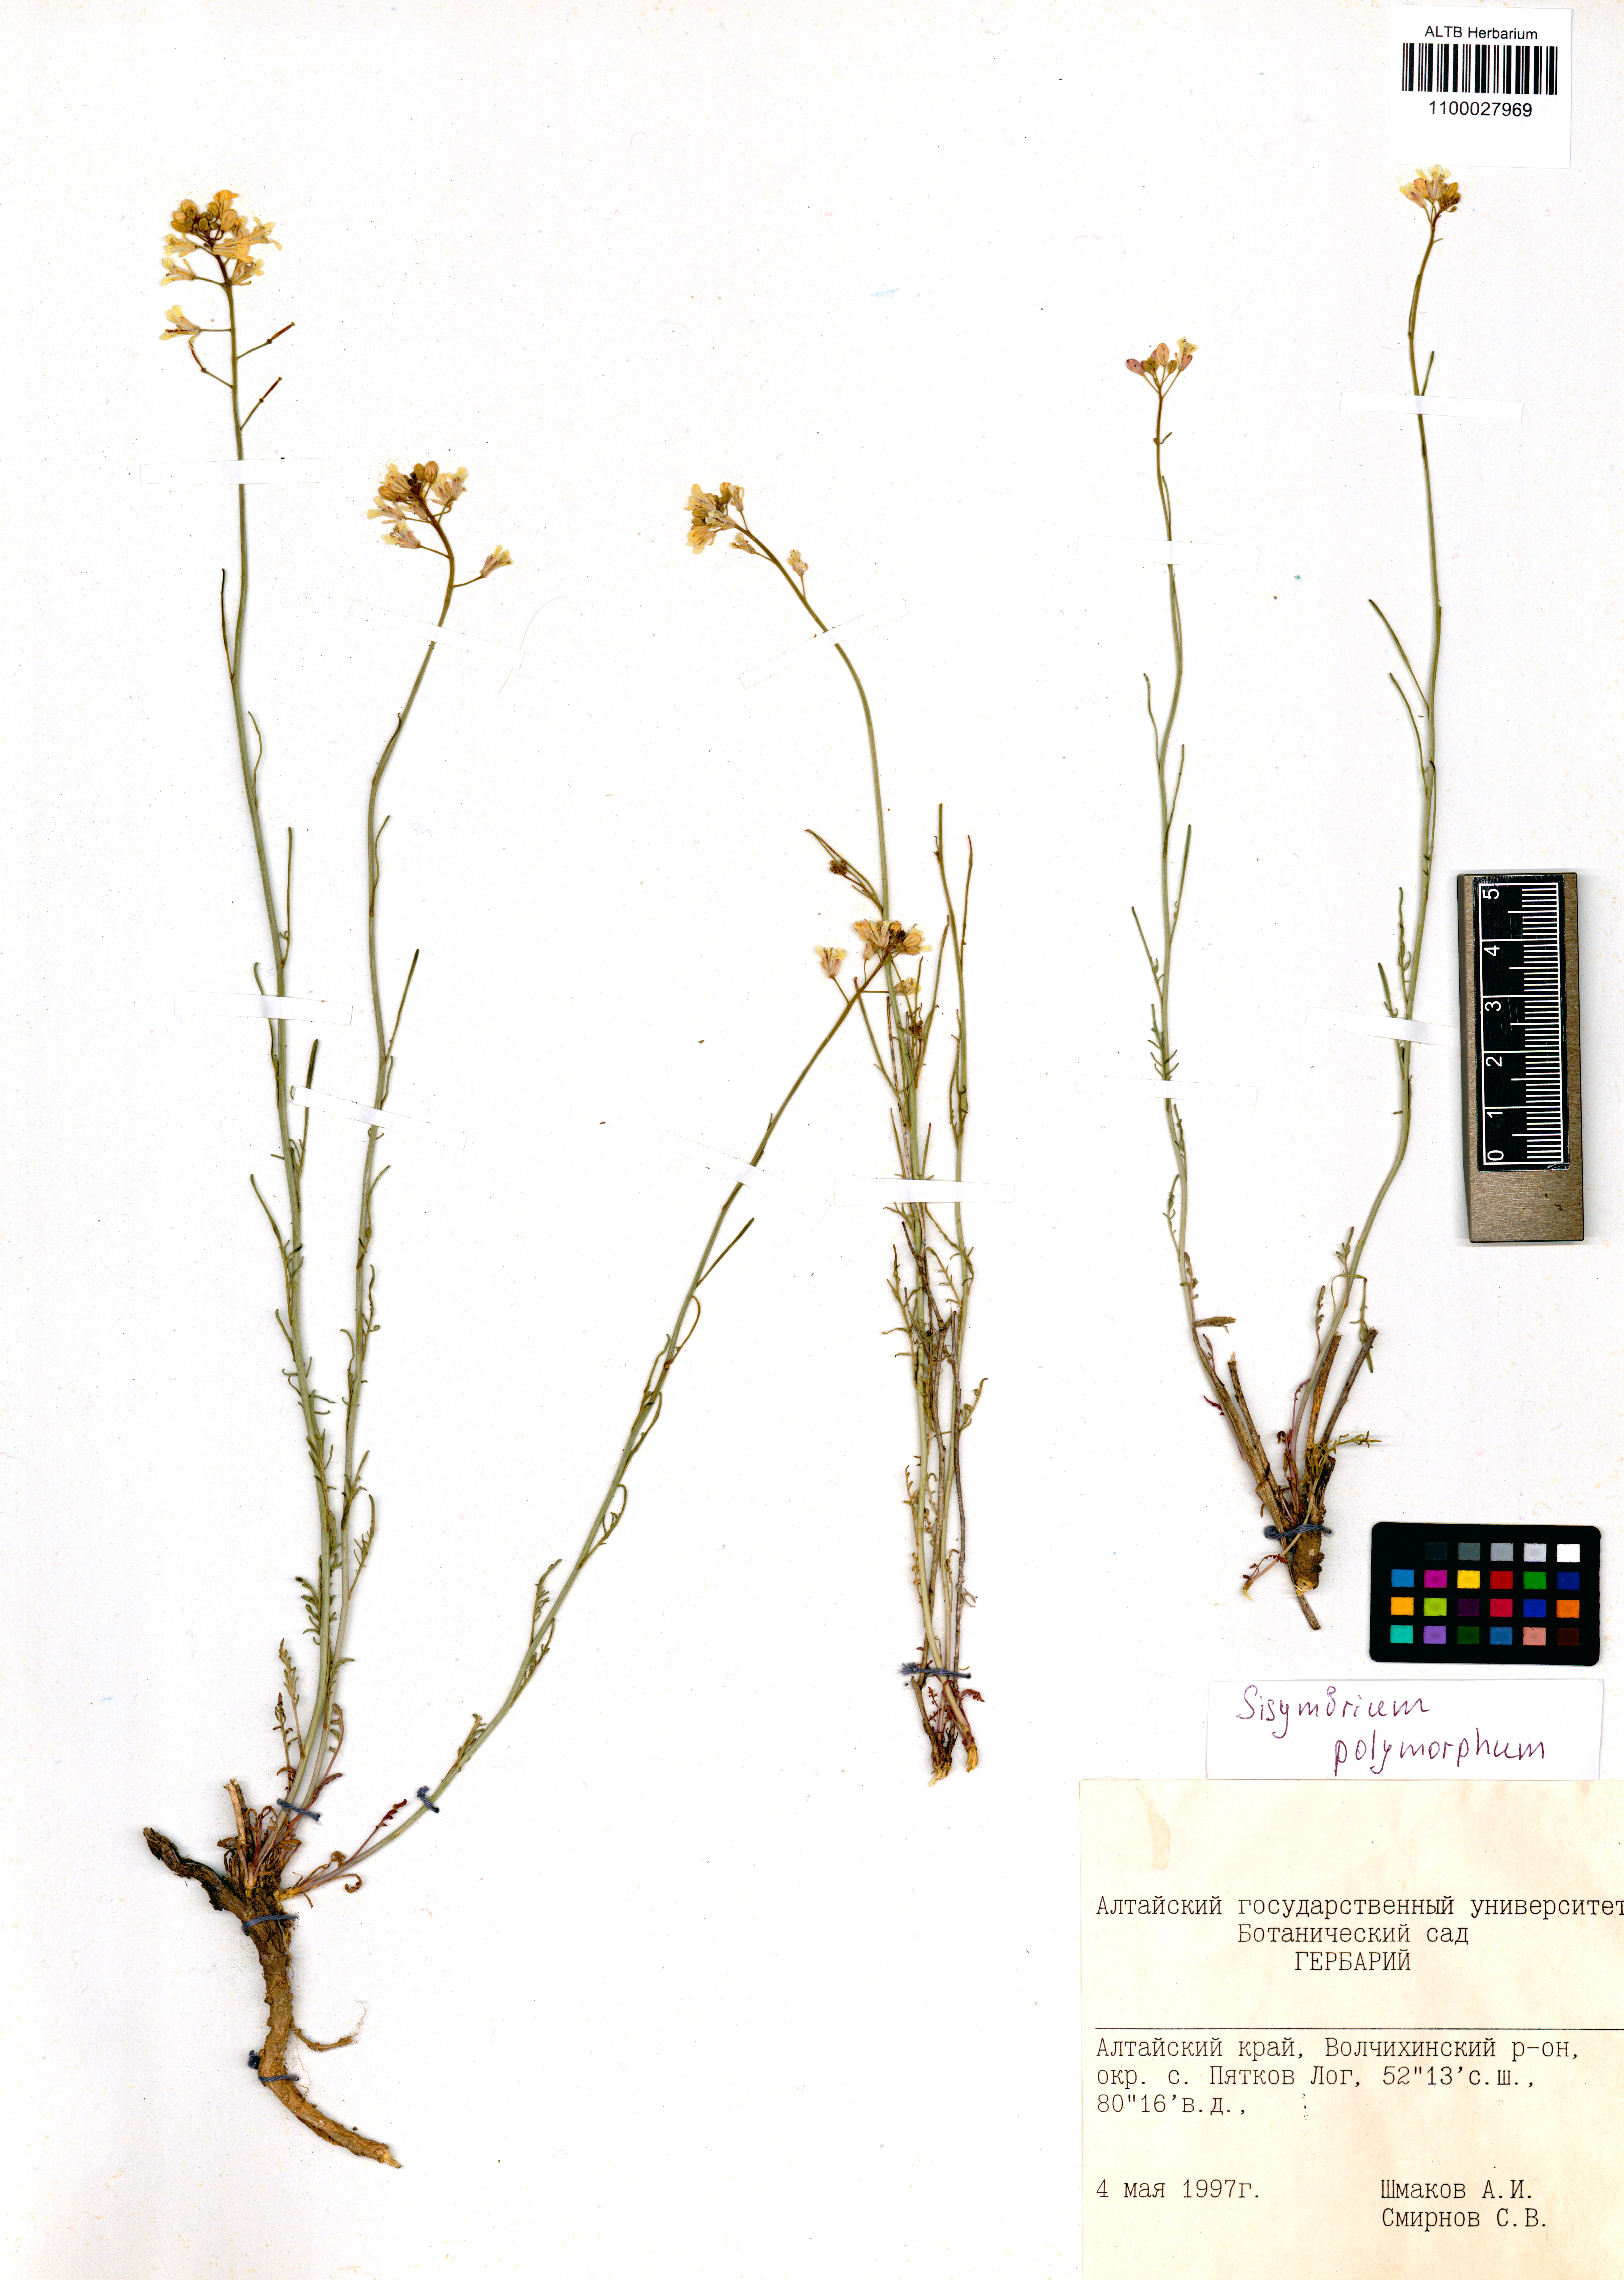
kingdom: Plantae
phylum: Tracheophyta
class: Magnoliopsida
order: Brassicales
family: Brassicaceae
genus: Sisymbrium
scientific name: Sisymbrium polymorphum
